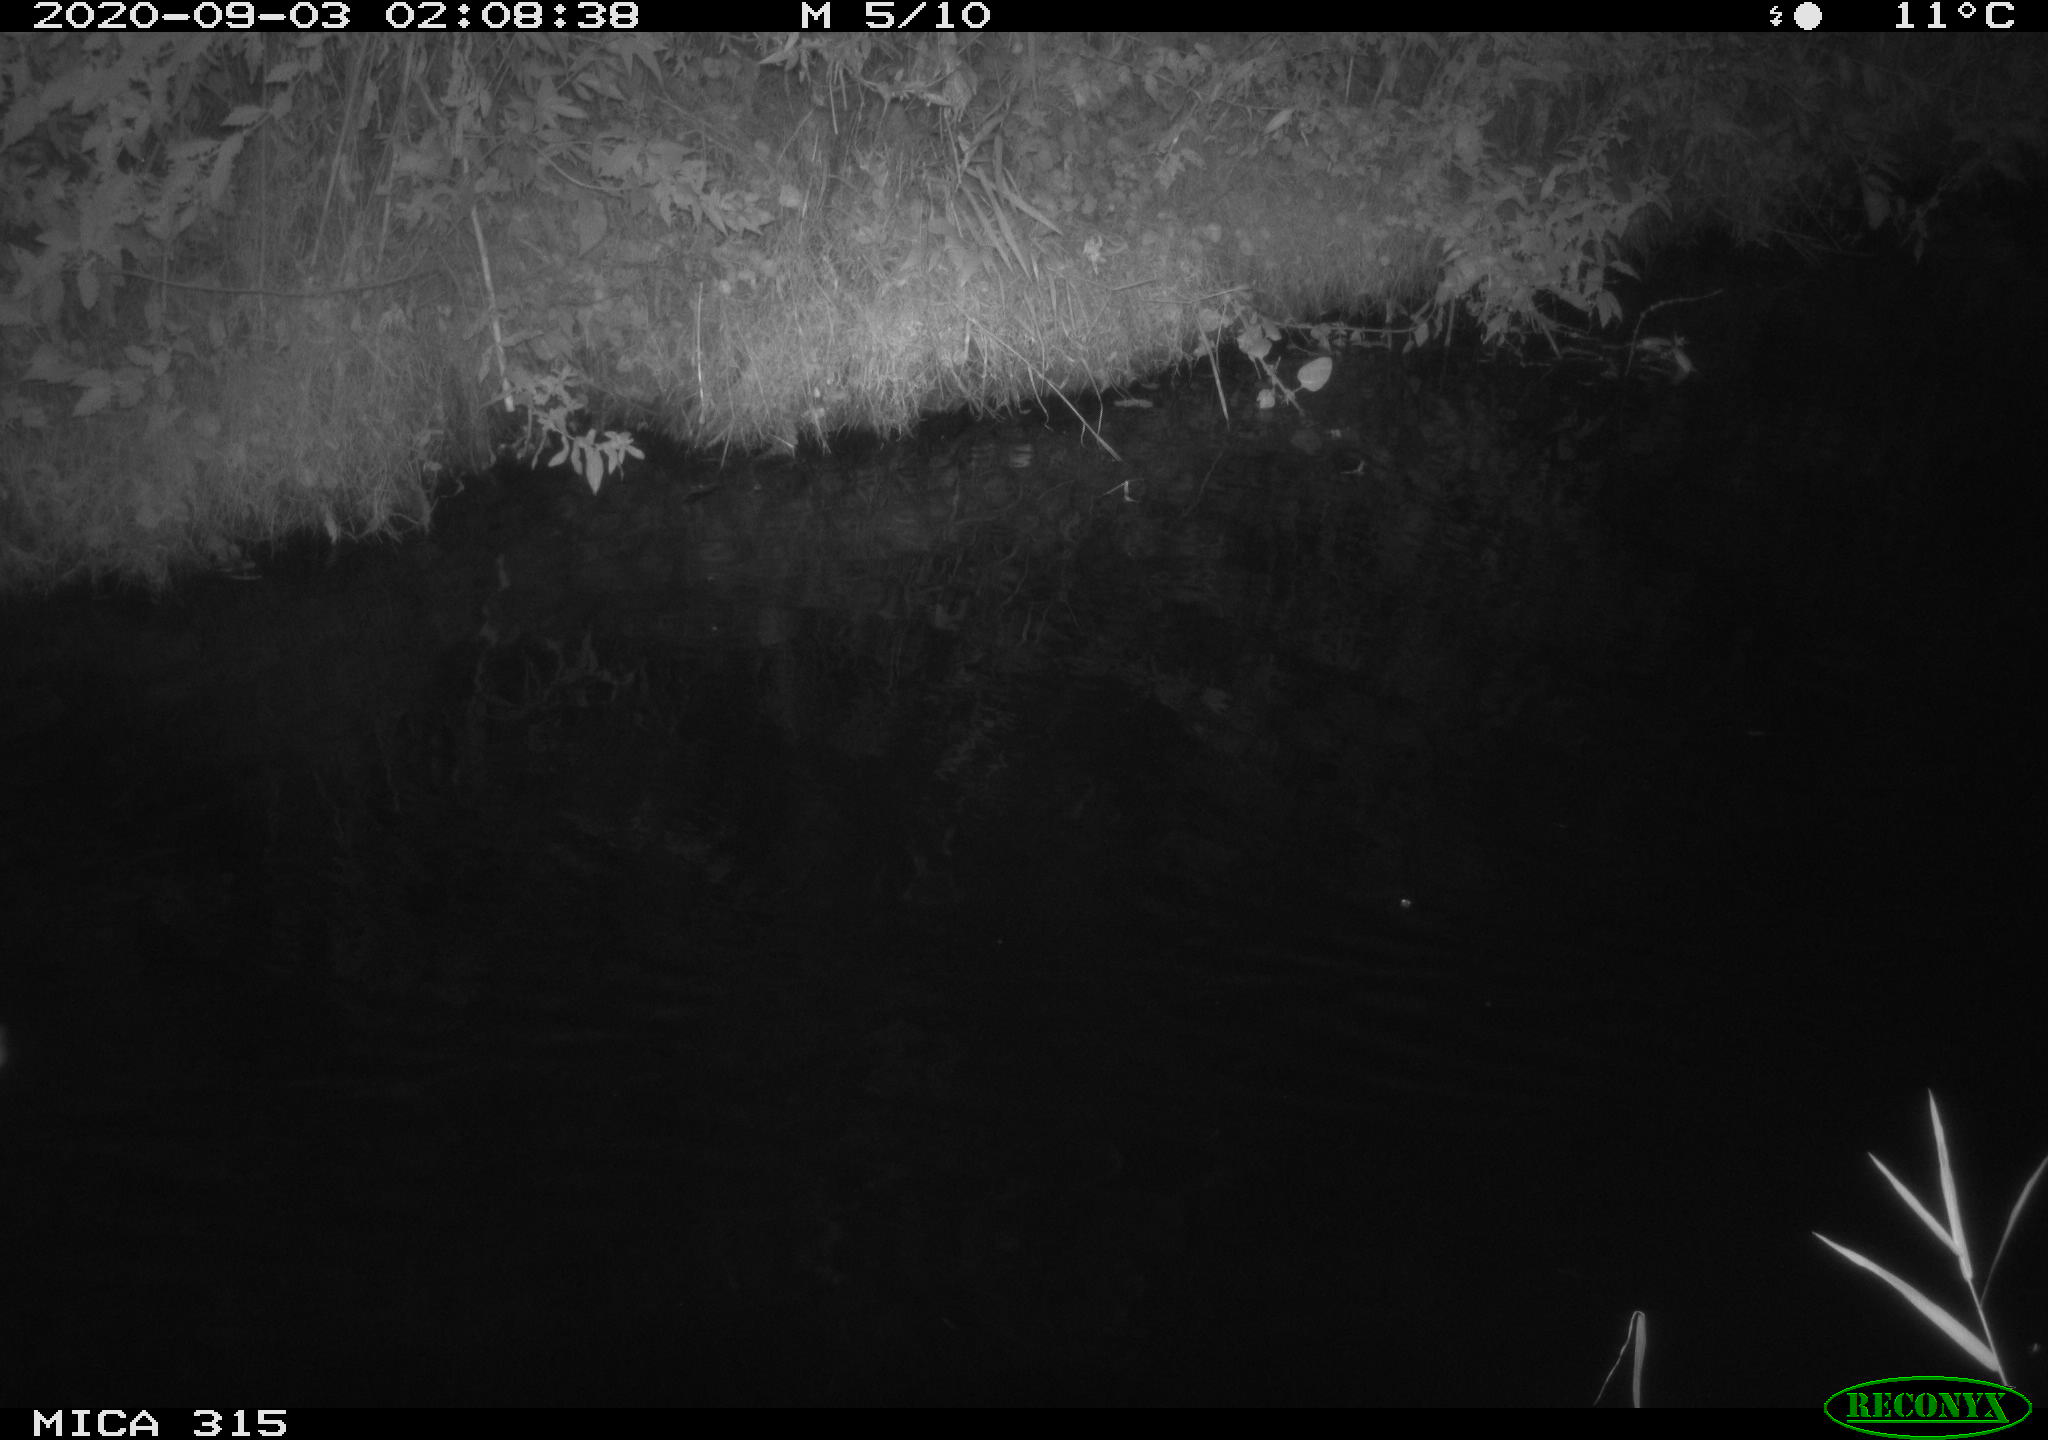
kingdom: Animalia
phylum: Chordata
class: Aves
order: Anseriformes
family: Anatidae
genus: Anas
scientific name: Anas platyrhynchos
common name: Mallard
